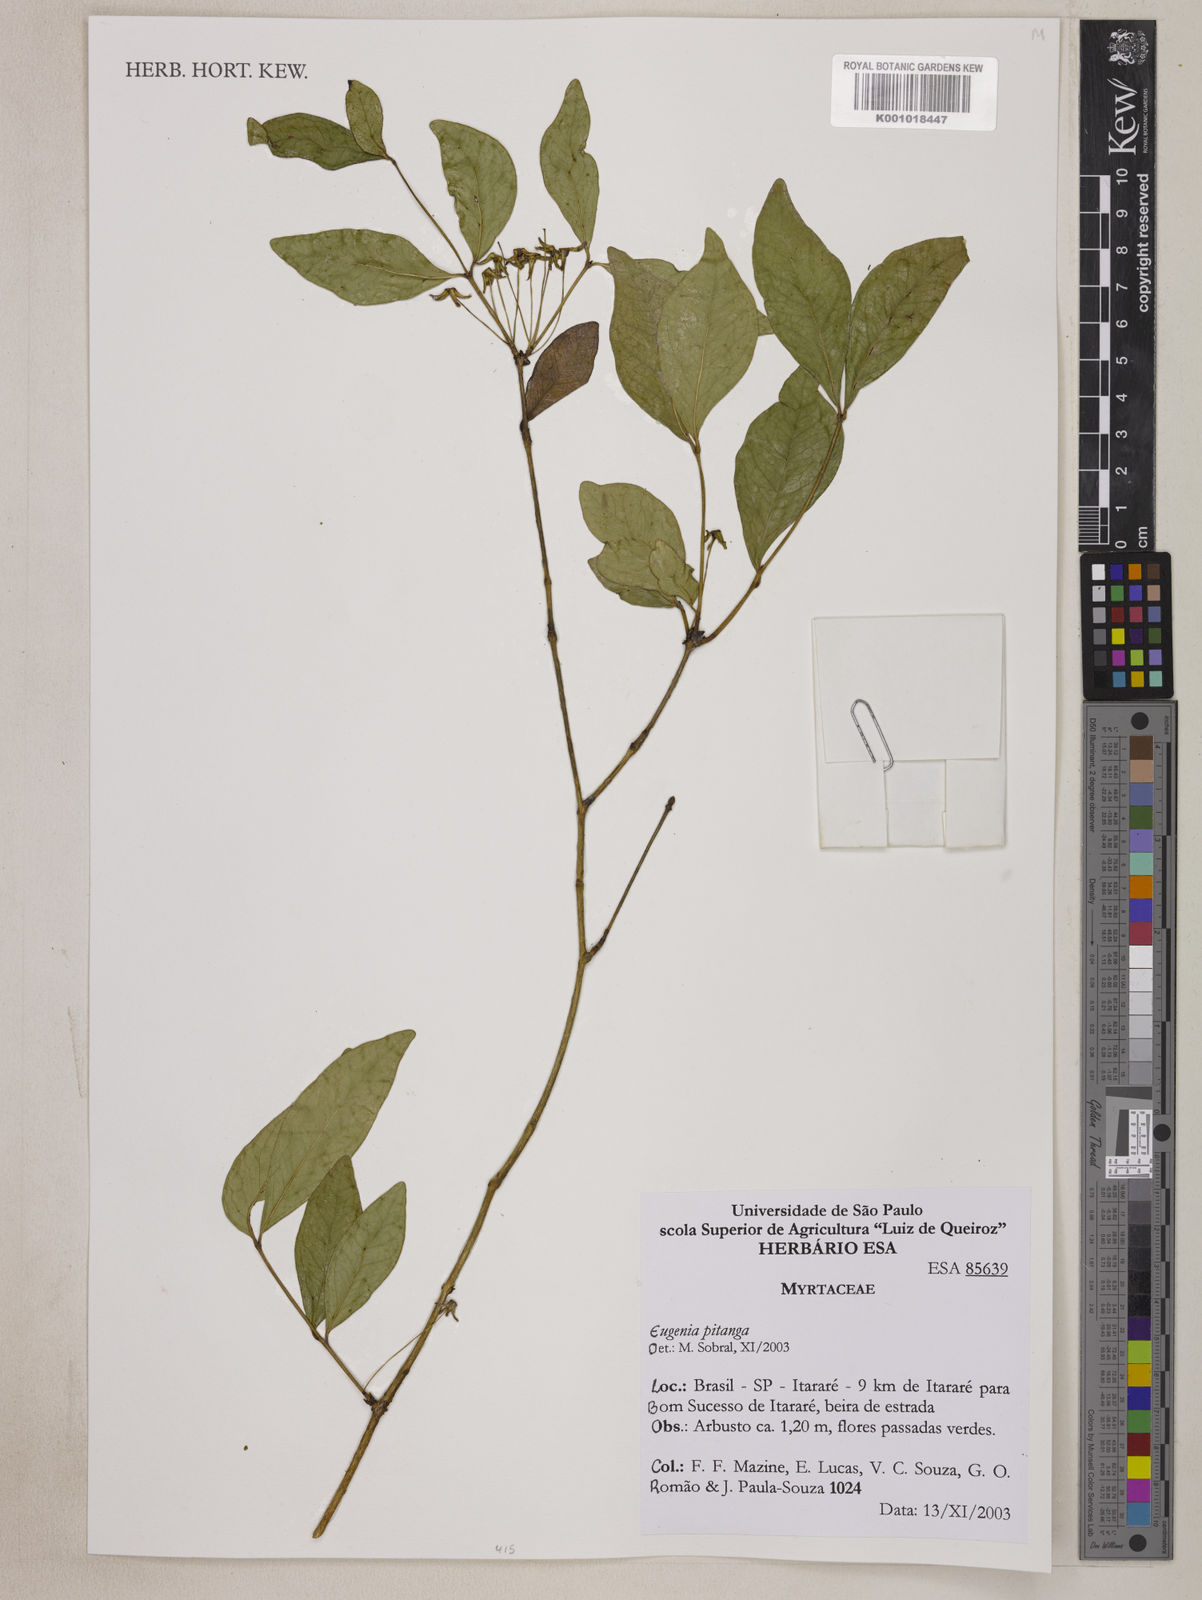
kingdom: Plantae
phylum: Tracheophyta
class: Magnoliopsida
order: Myrtales
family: Myrtaceae
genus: Eugenia
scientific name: Eugenia
